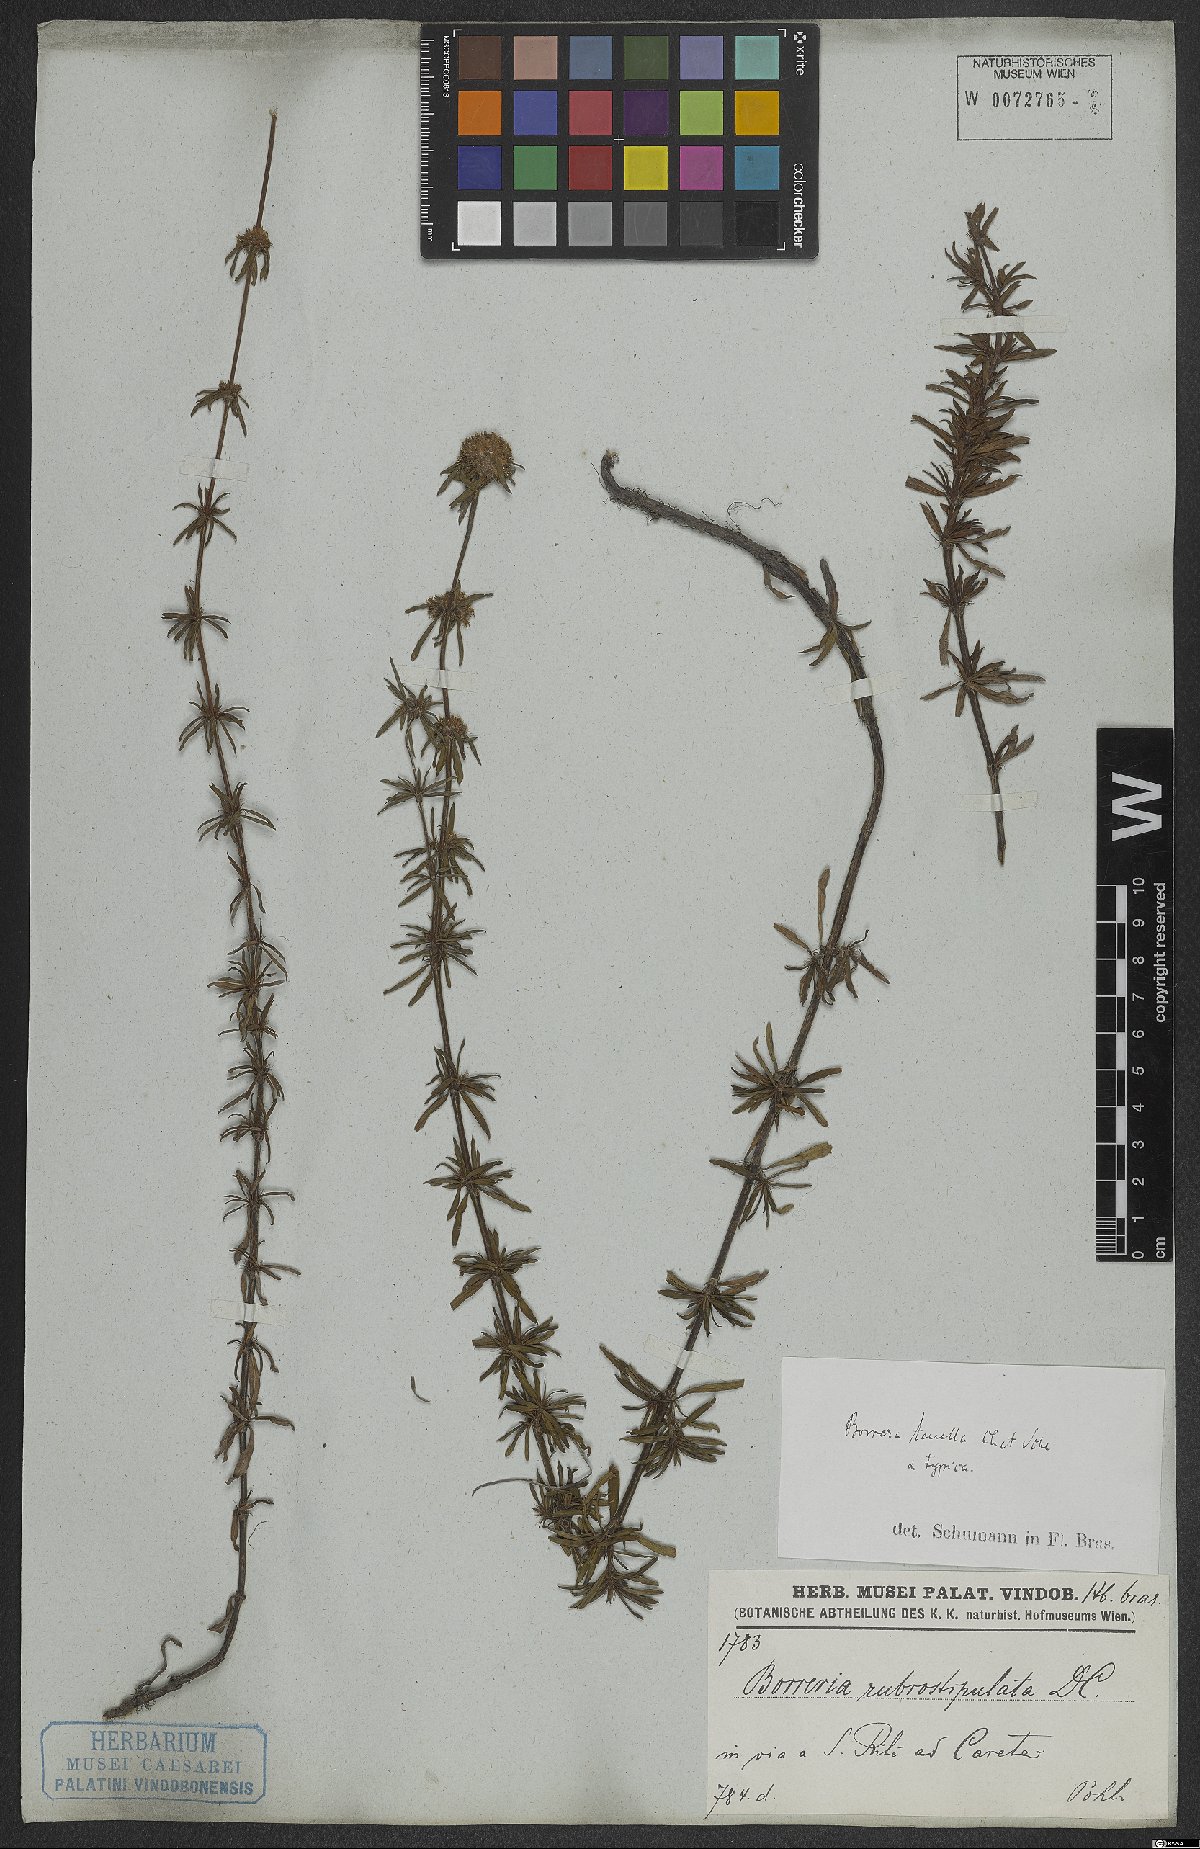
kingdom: Plantae
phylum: Tracheophyta
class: Magnoliopsida
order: Gentianales
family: Rubiaceae
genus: Spermacoce
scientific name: Spermacoce orinocensis
